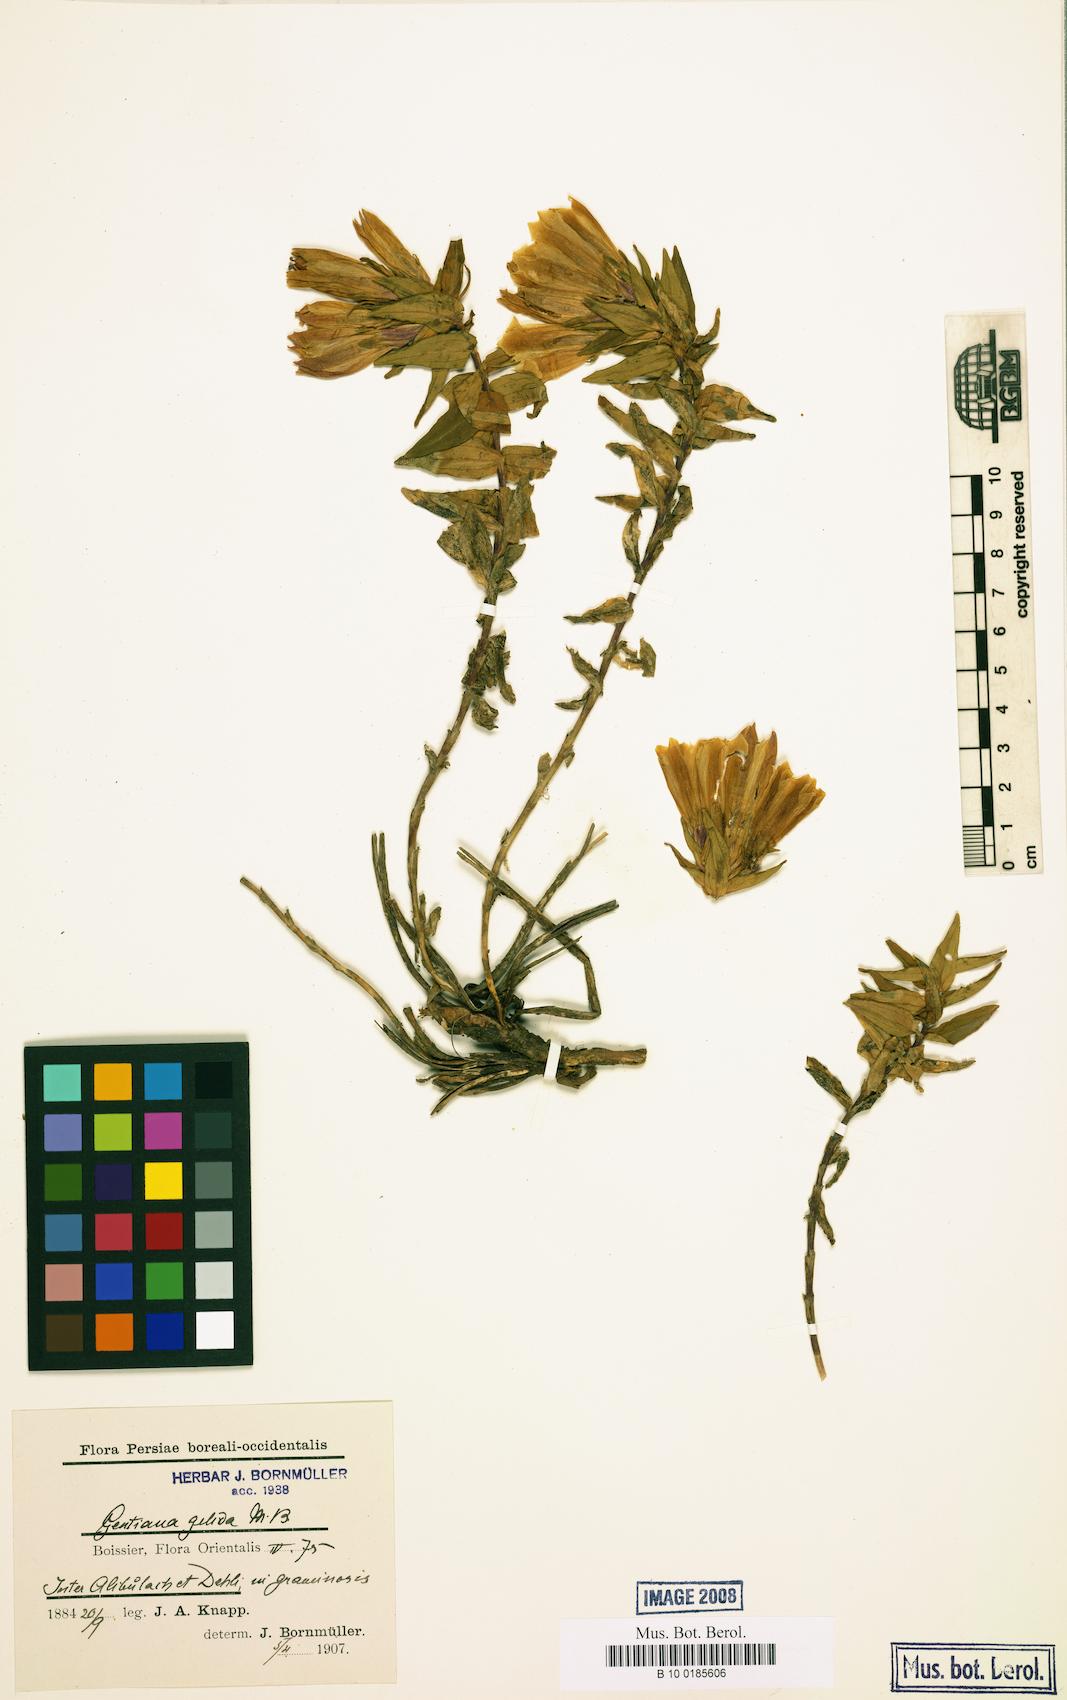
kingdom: Plantae
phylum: Tracheophyta
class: Magnoliopsida
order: Gentianales
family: Gentianaceae
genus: Gentiana
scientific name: Gentiana gelida
